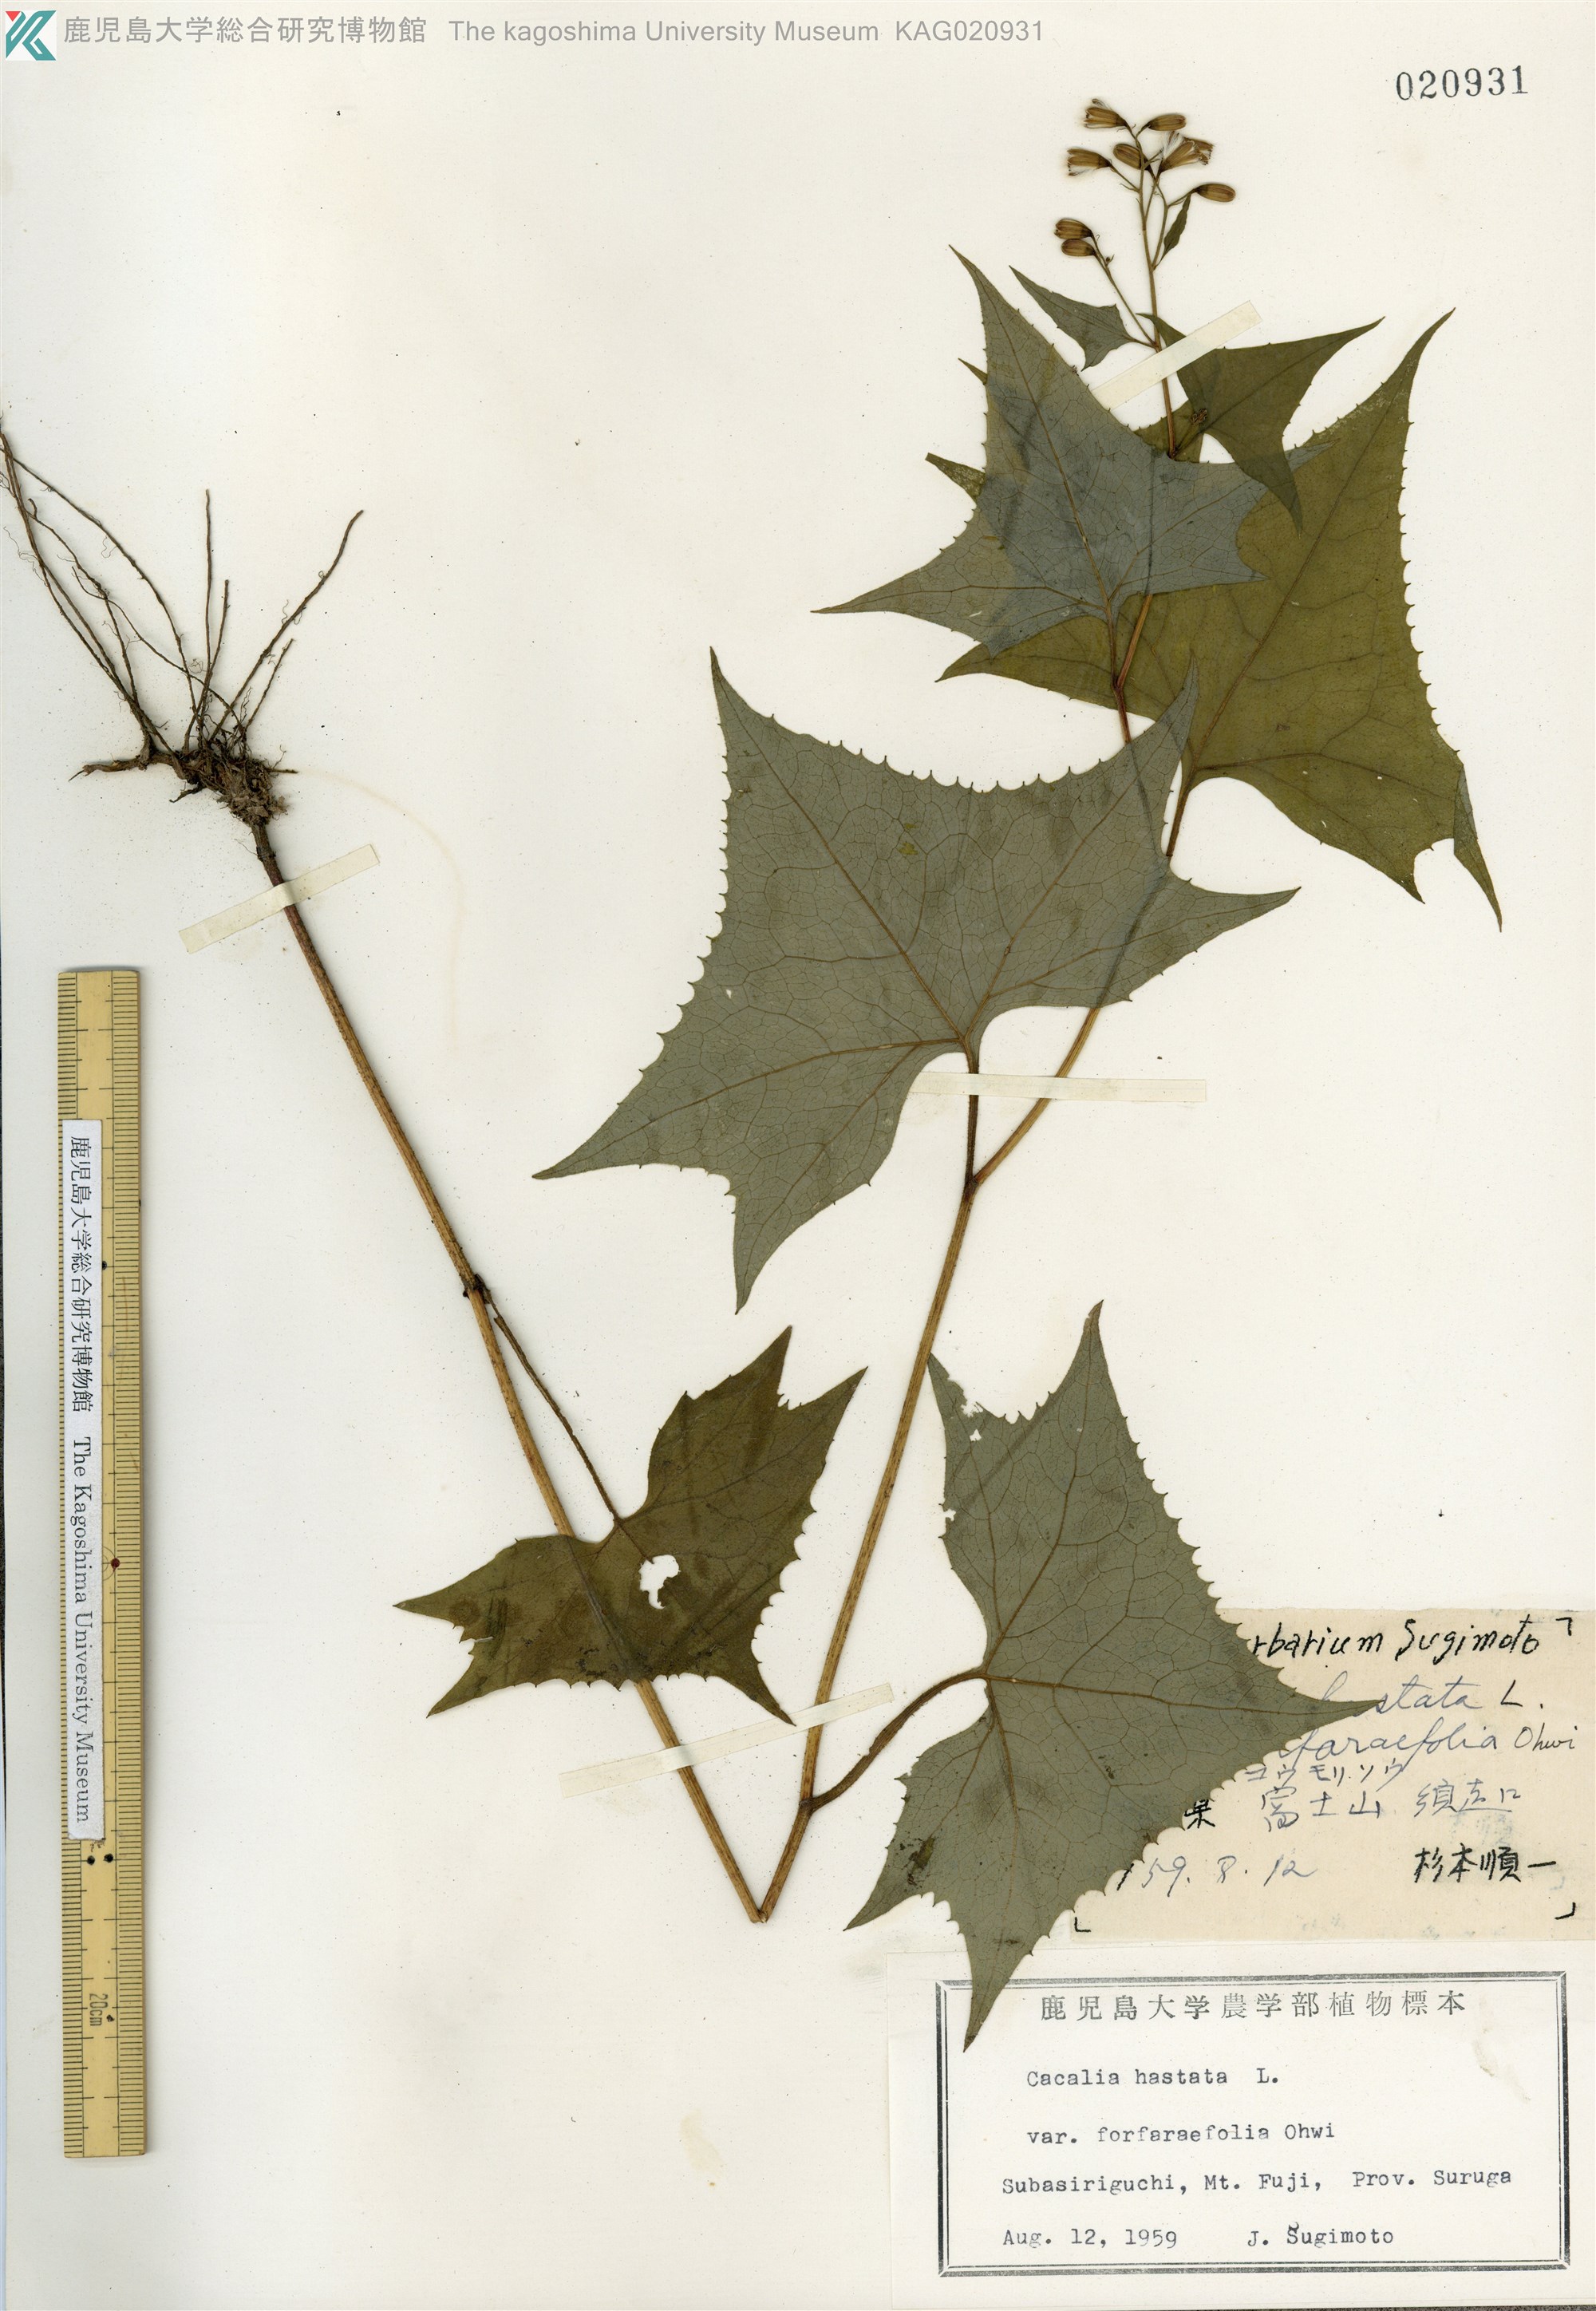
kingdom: Plantae
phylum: Tracheophyta
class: Magnoliopsida
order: Asterales
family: Asteraceae
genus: Parasenecio
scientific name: Parasenecio maximowicziana
